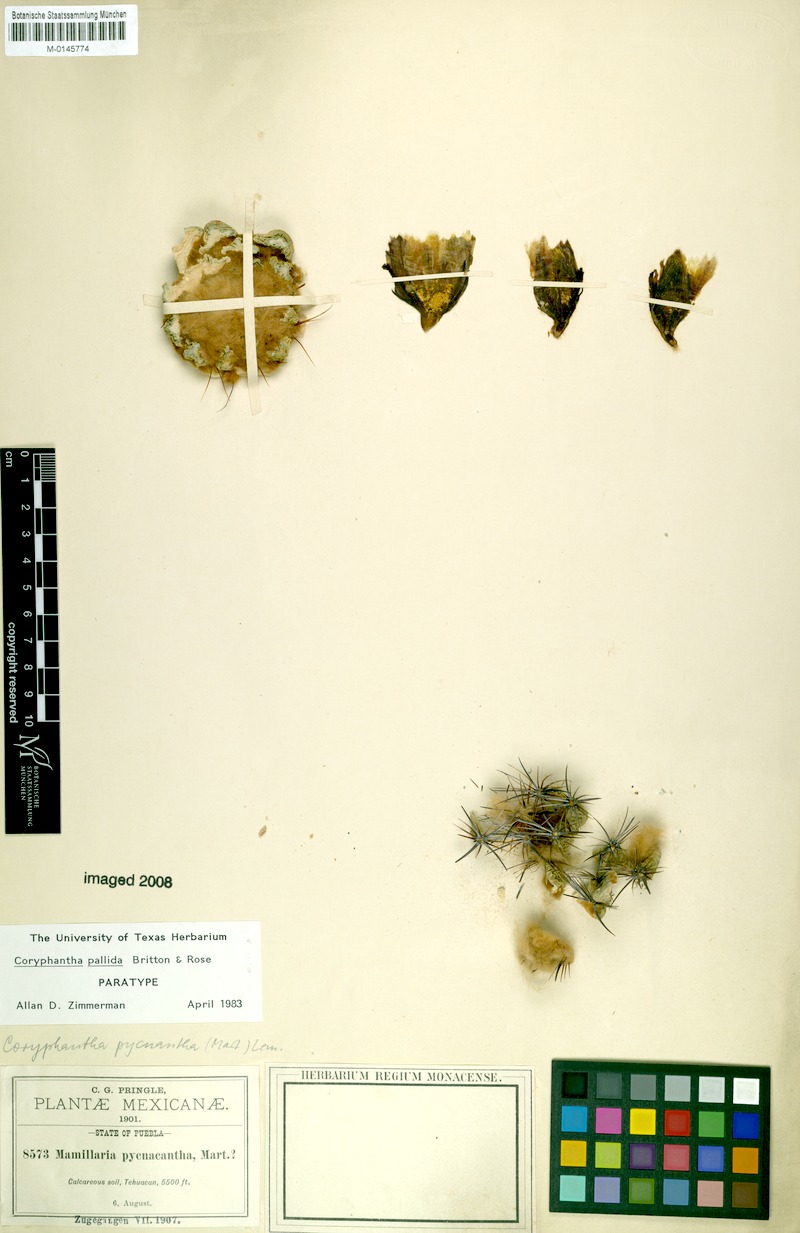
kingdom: Plantae
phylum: Tracheophyta
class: Magnoliopsida
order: Caryophyllales
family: Cactaceae
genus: Coryphantha
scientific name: Coryphantha pallida
